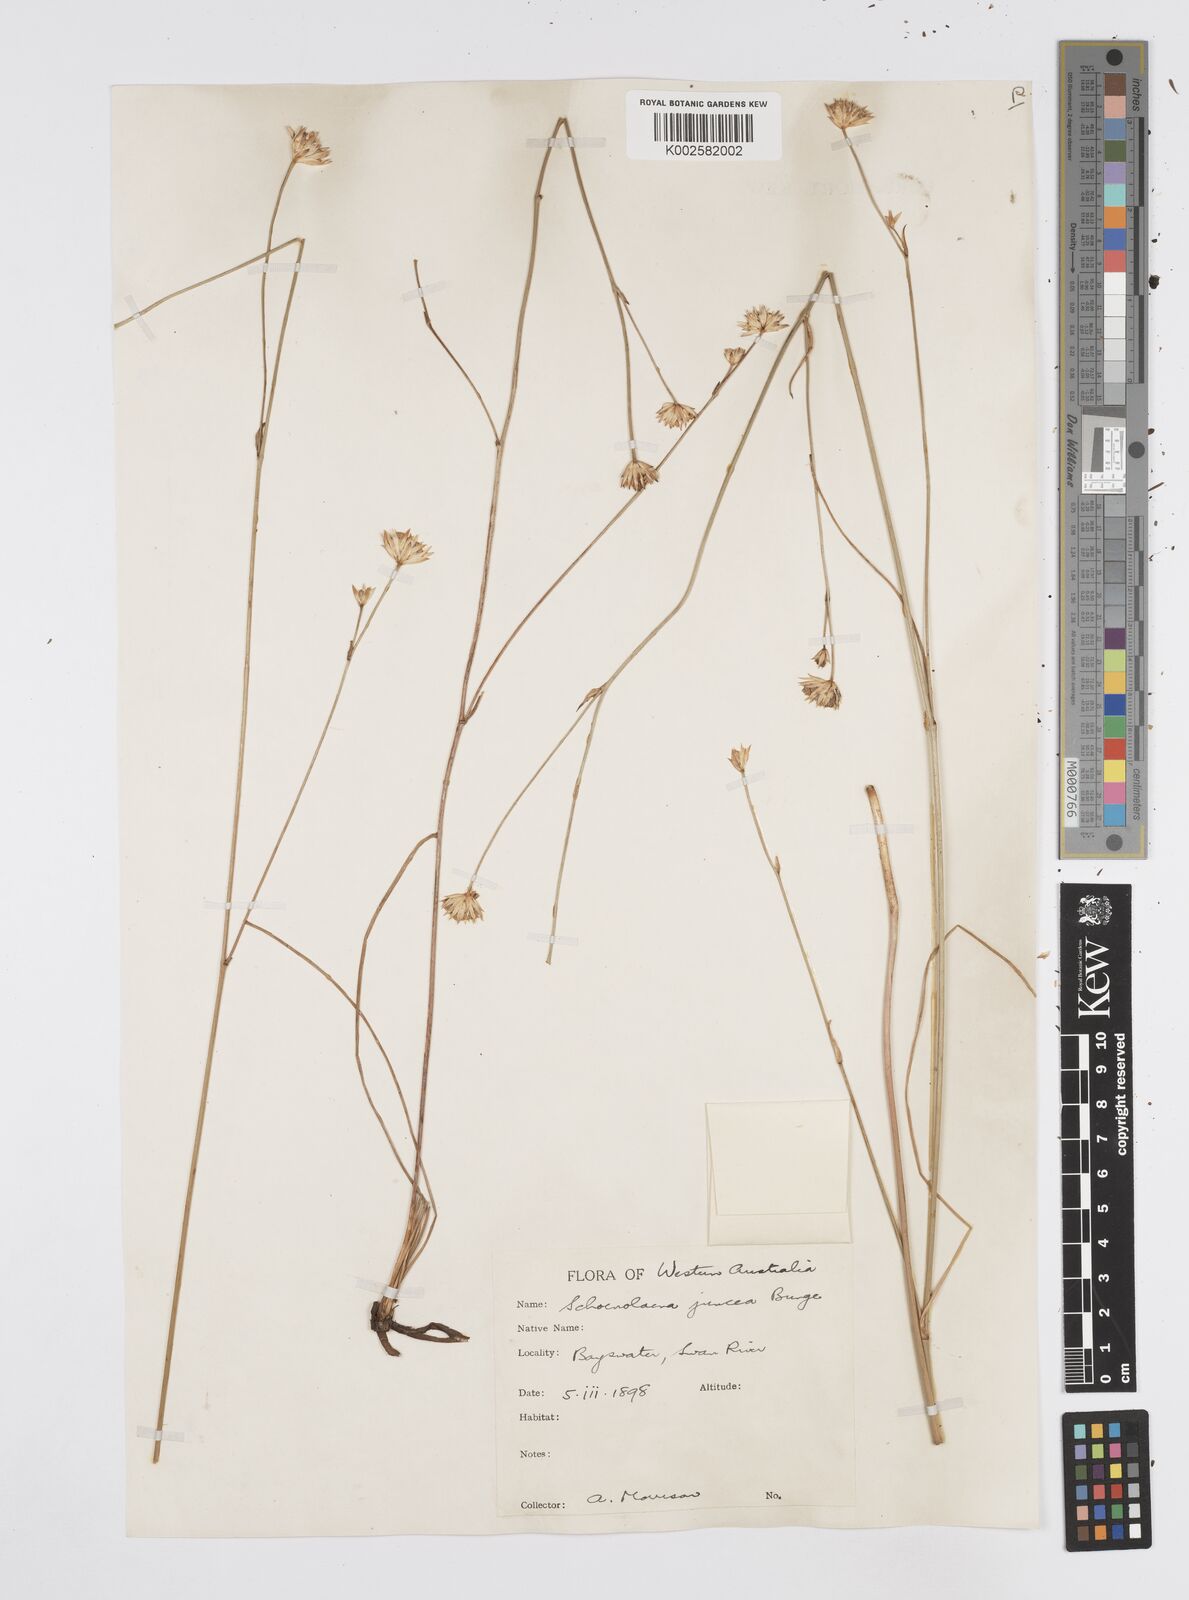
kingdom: Plantae
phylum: Tracheophyta
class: Magnoliopsida
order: Apiales
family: Apiaceae
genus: Schoenolaena
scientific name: Schoenolaena juncea
